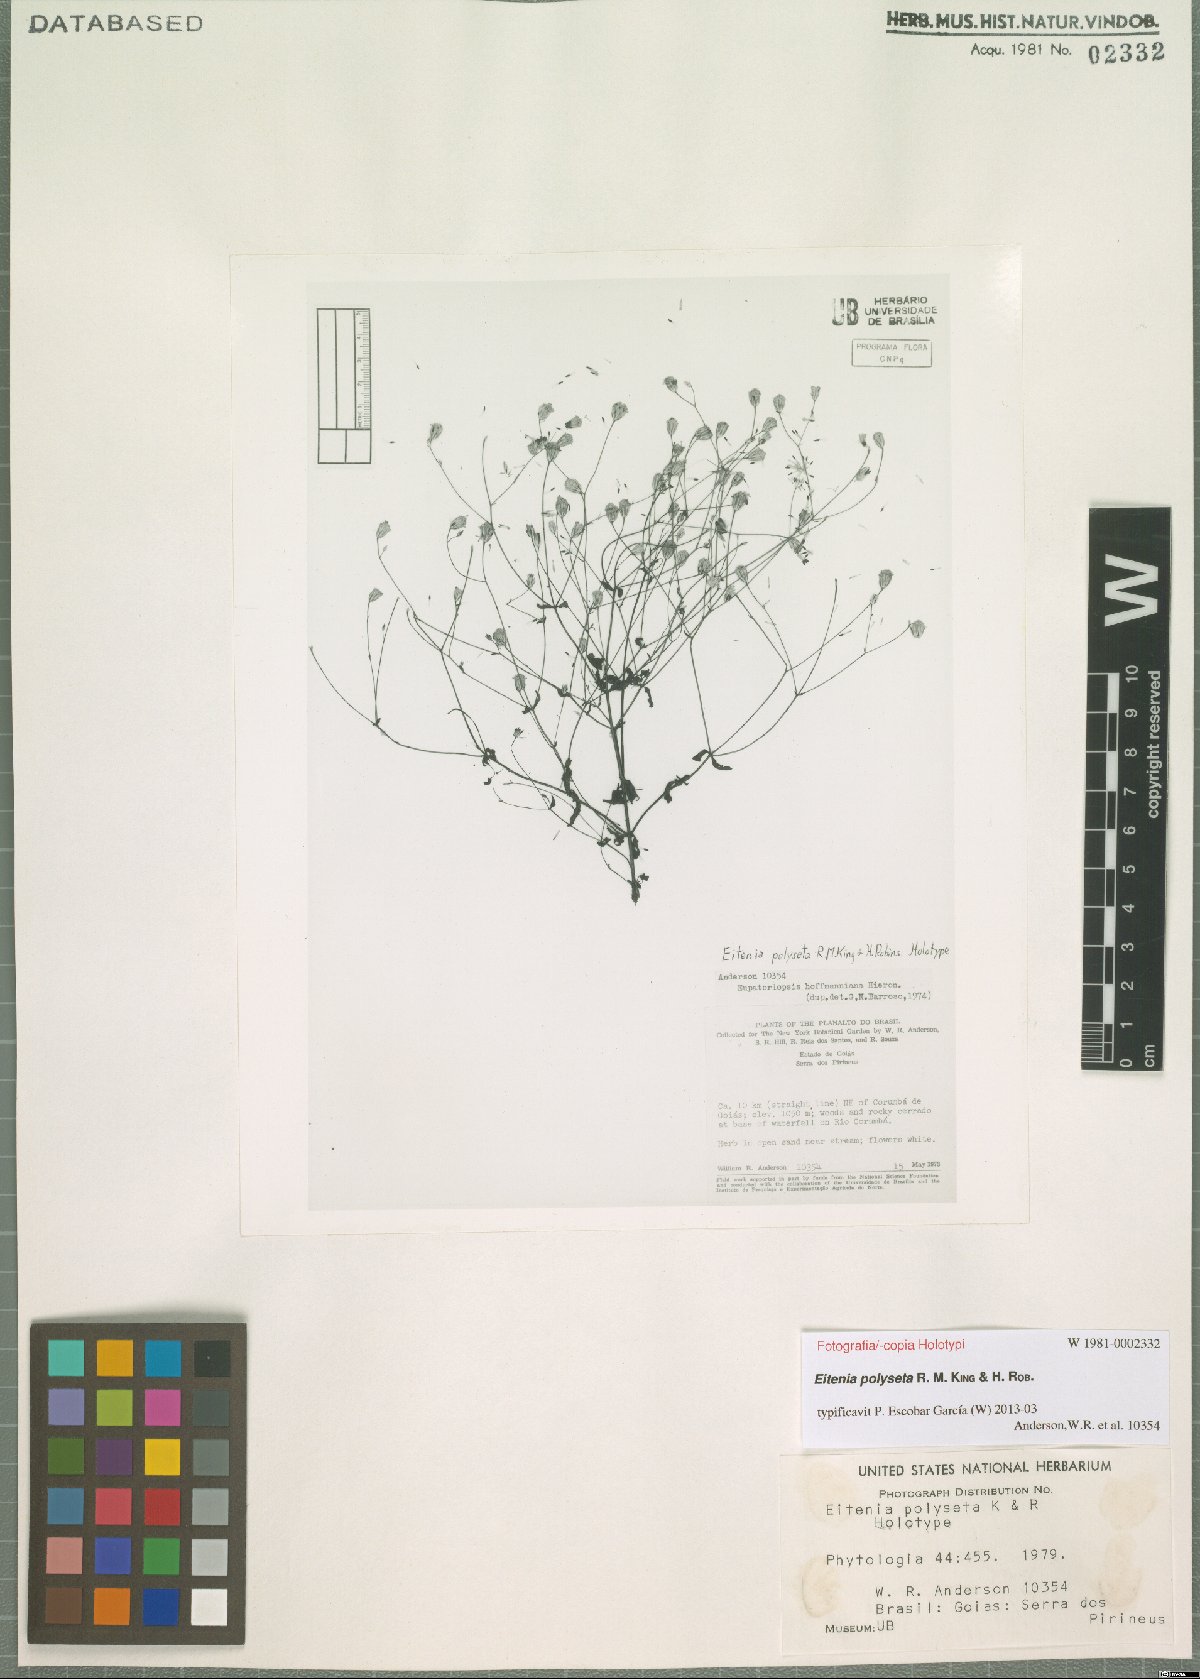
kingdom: Plantae
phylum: Tracheophyta
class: Magnoliopsida
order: Asterales
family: Asteraceae
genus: Eitenia
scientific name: Eitenia polyseta
